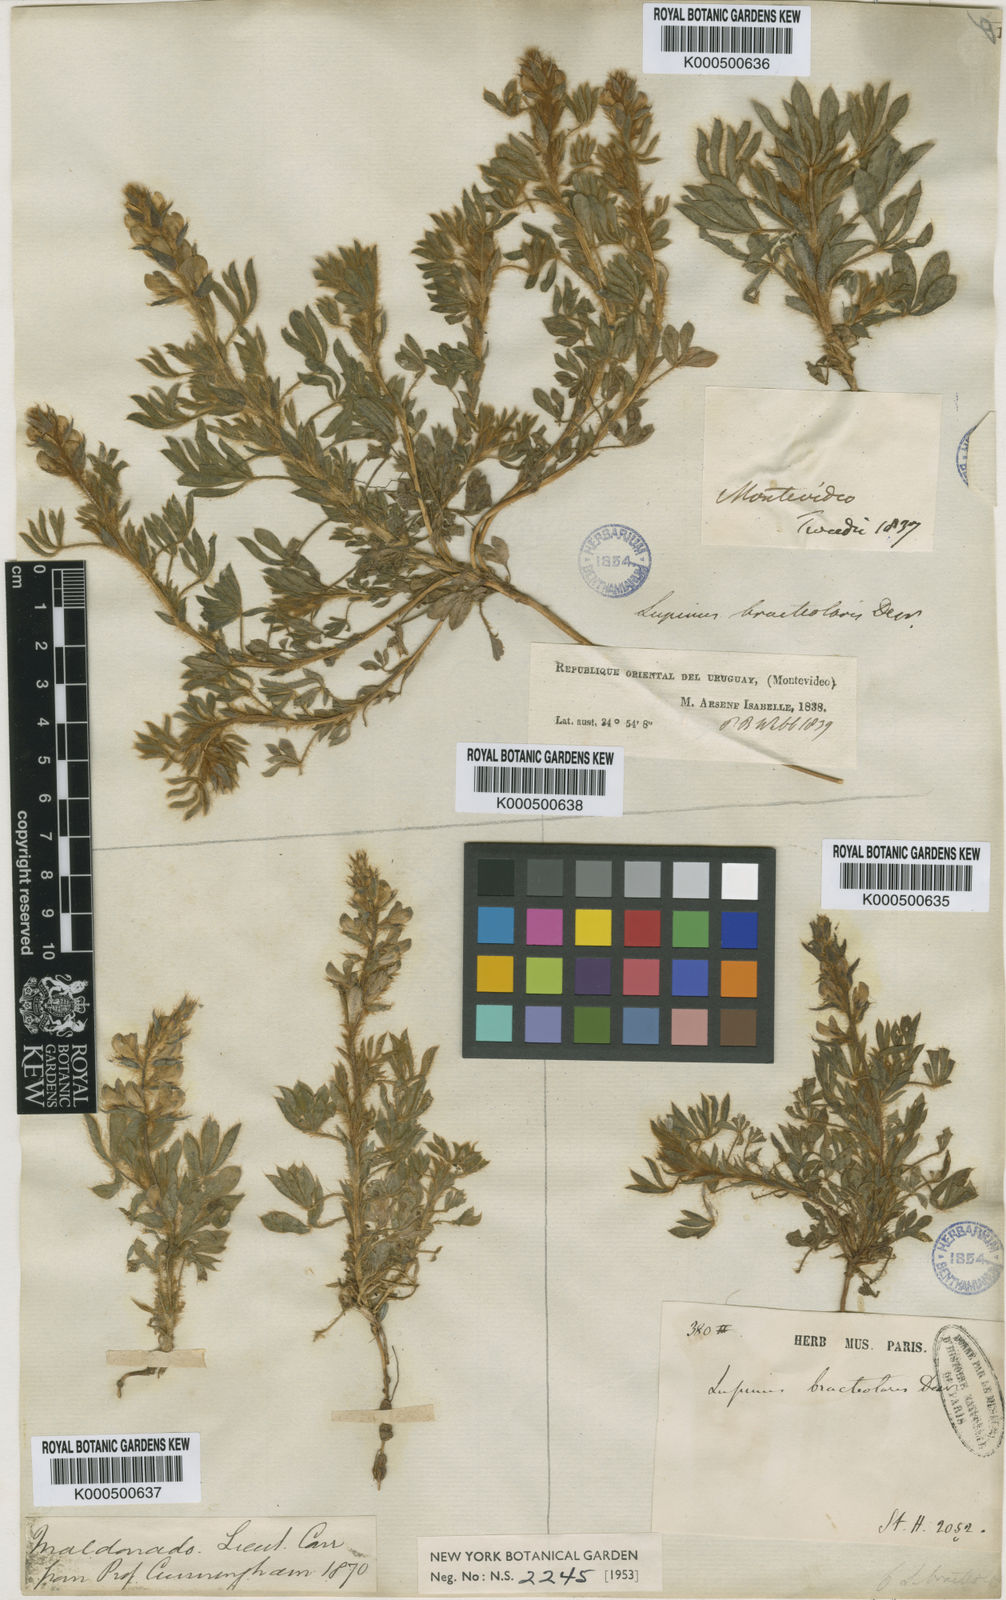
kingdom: Plantae
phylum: Tracheophyta
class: Magnoliopsida
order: Fabales
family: Fabaceae
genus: Lupinus
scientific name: Lupinus bracteolaris
